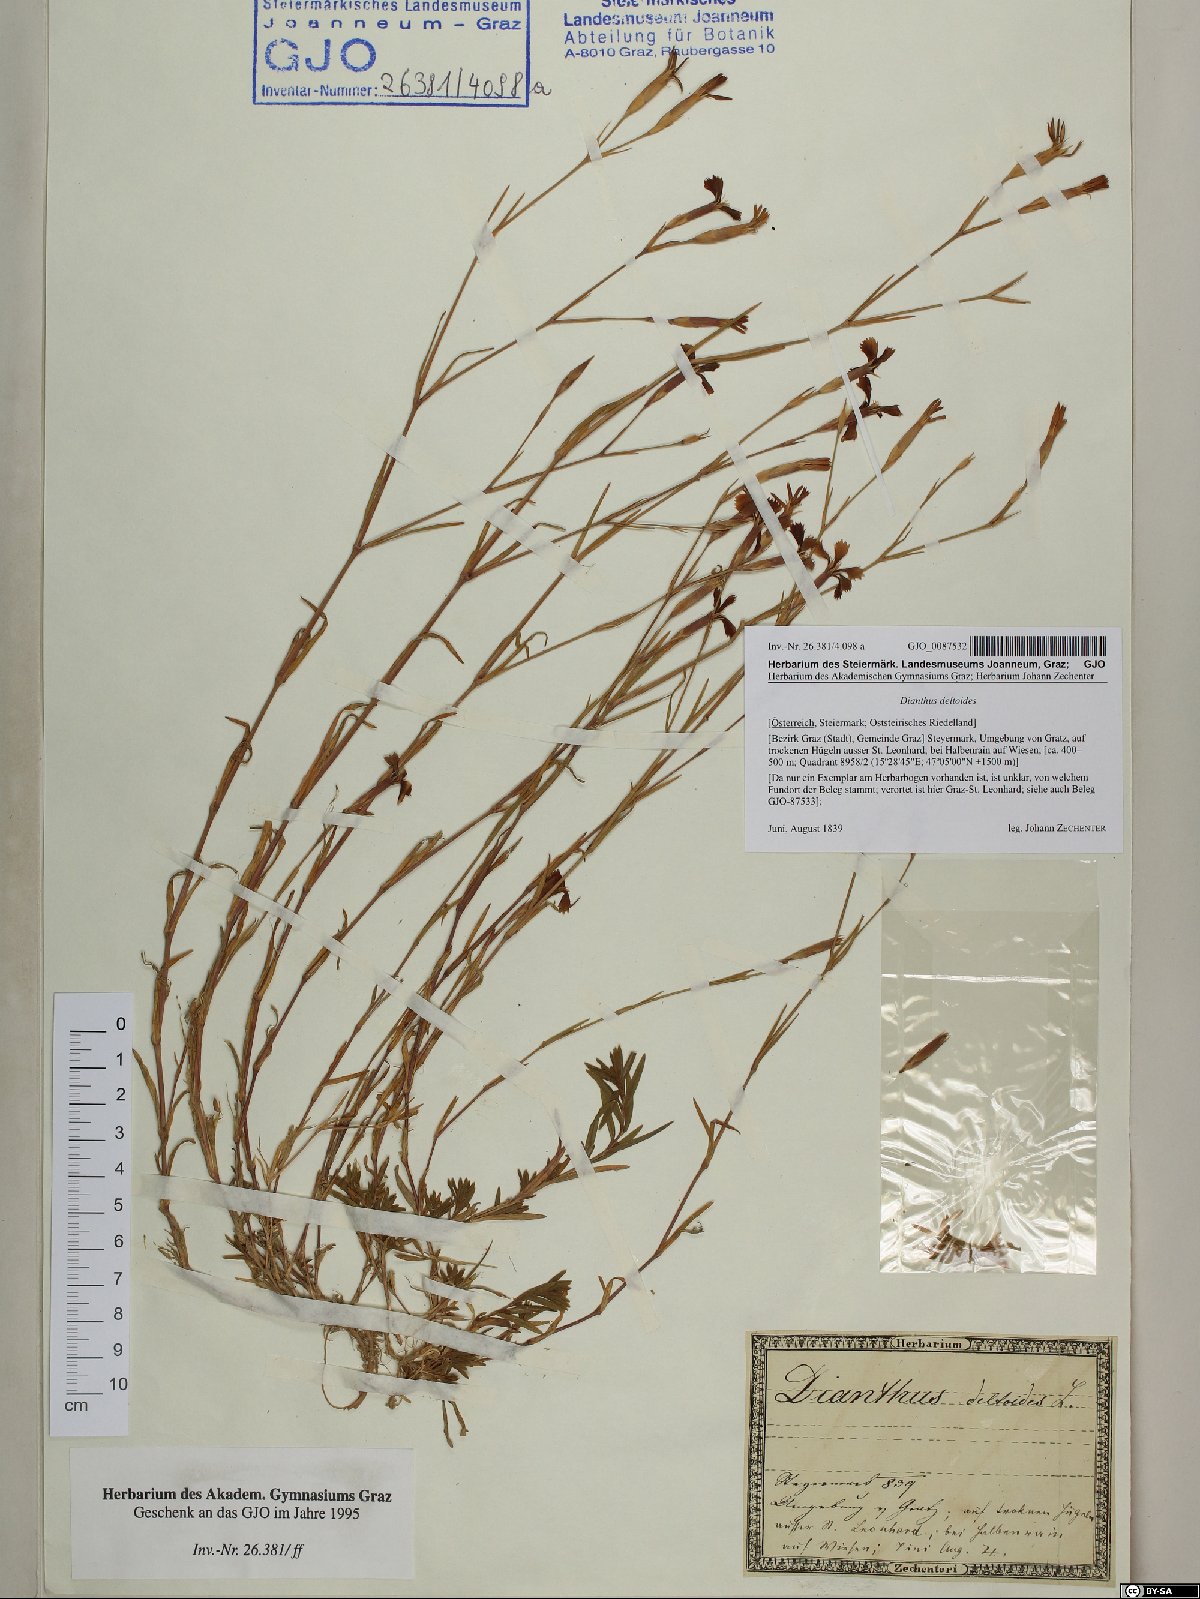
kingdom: Plantae
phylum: Tracheophyta
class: Magnoliopsida
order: Caryophyllales
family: Caryophyllaceae
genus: Dianthus
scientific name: Dianthus deltoides
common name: Maiden pink
